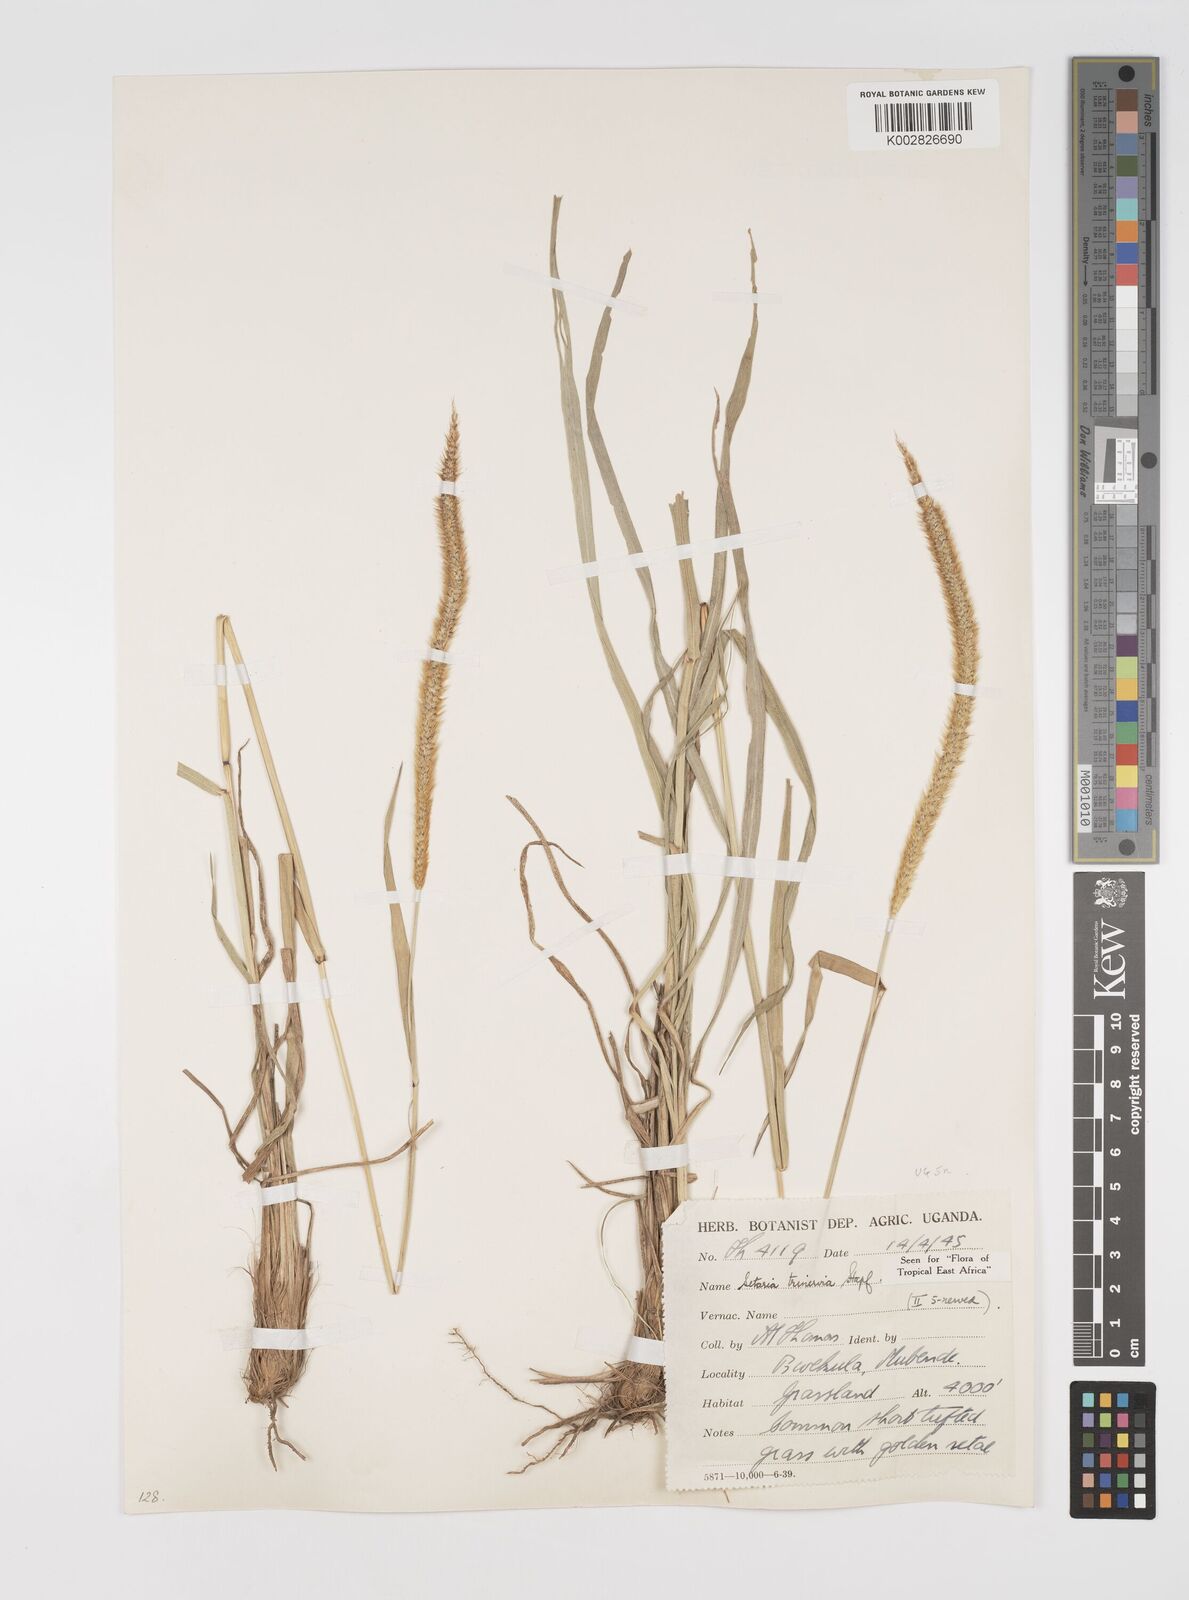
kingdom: Plantae
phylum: Tracheophyta
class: Liliopsida
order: Poales
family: Poaceae
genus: Setaria
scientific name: Setaria sphacelata
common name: African bristlegrass
